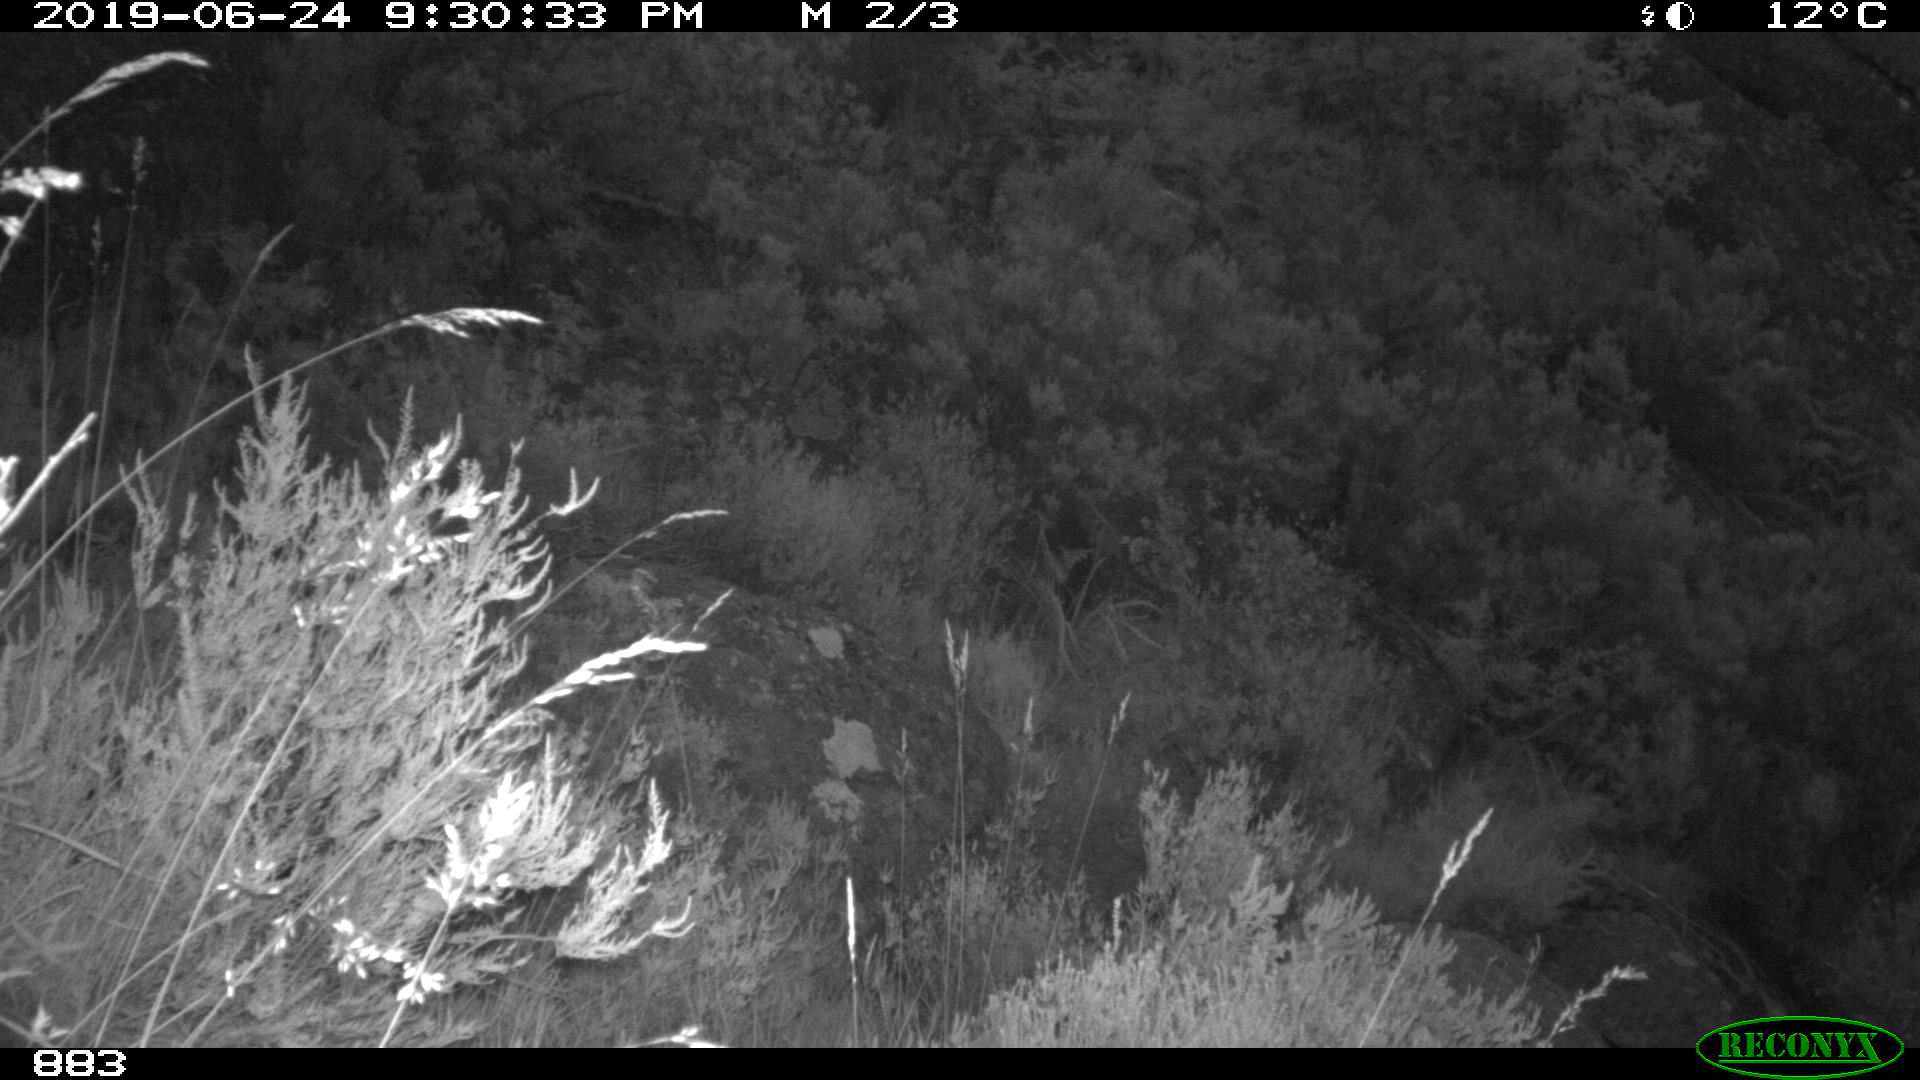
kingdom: Animalia
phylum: Chordata
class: Mammalia
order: Artiodactyla
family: Suidae
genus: Sus
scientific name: Sus scrofa
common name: Wild boar
